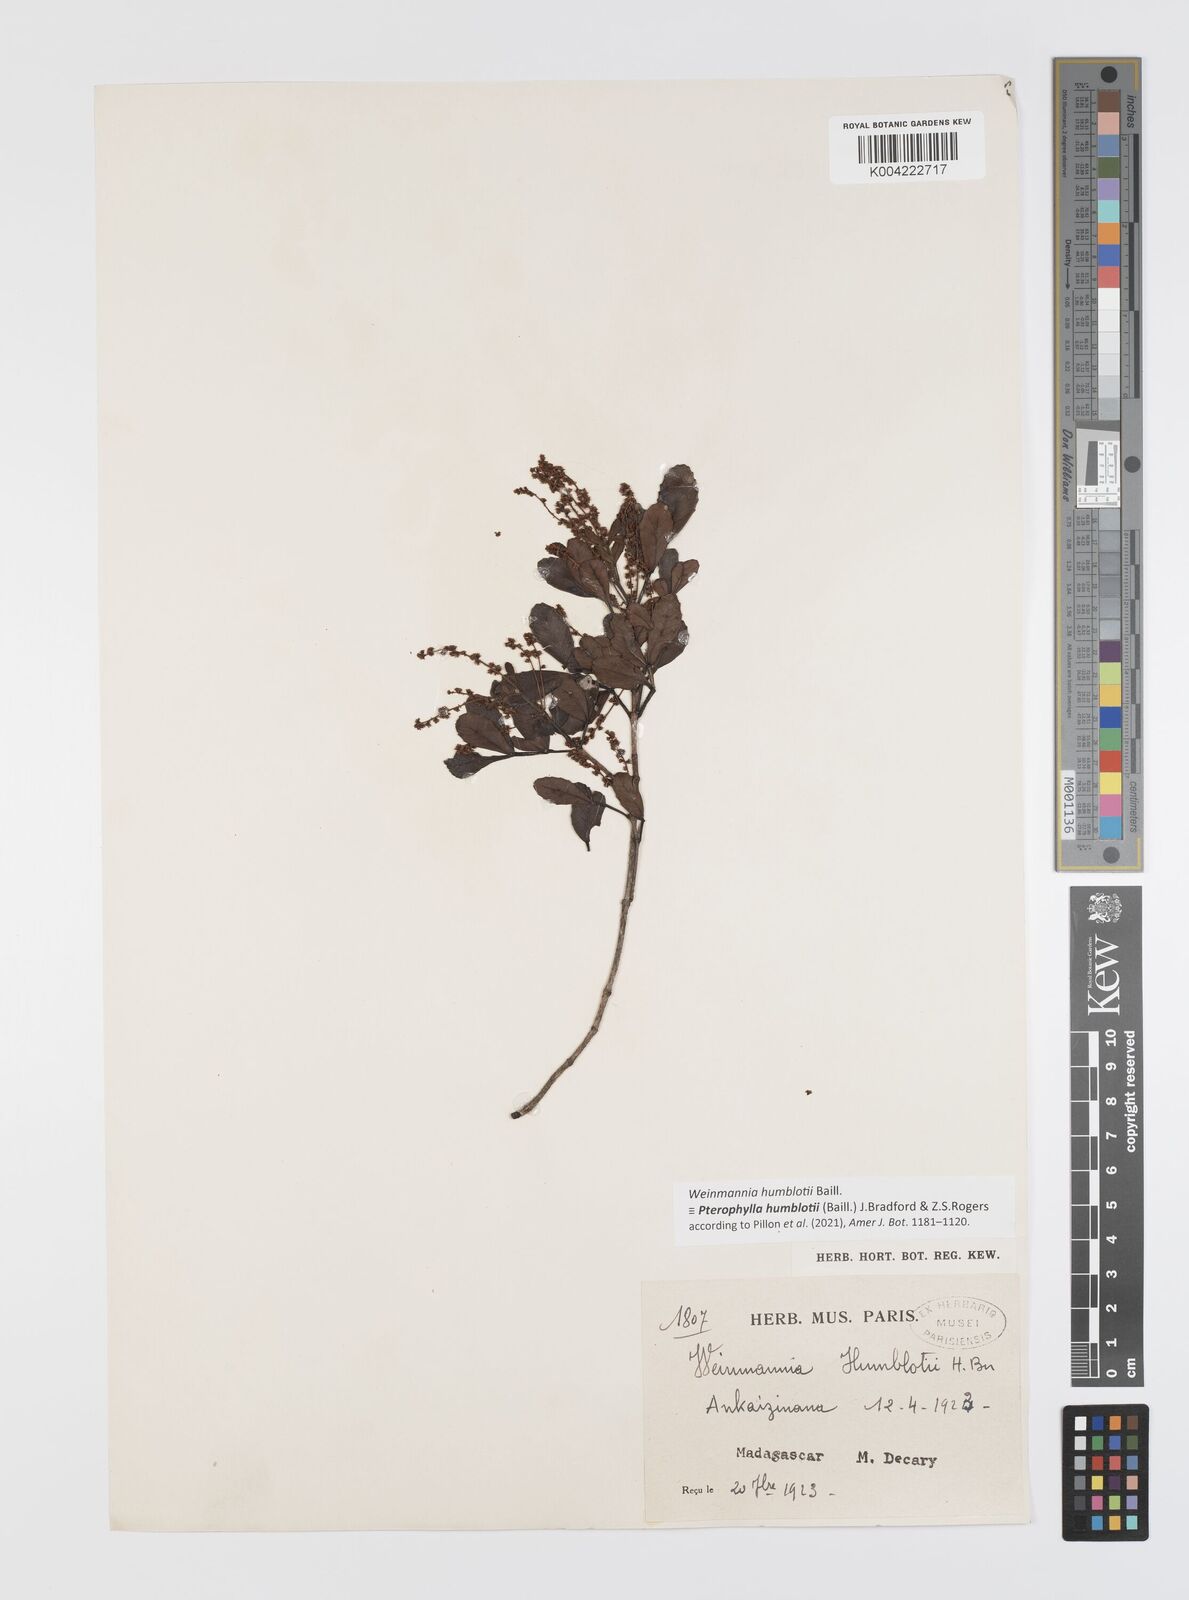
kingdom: Plantae
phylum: Tracheophyta
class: Magnoliopsida
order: Oxalidales
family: Cunoniaceae
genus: Pterophylla
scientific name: Pterophylla
